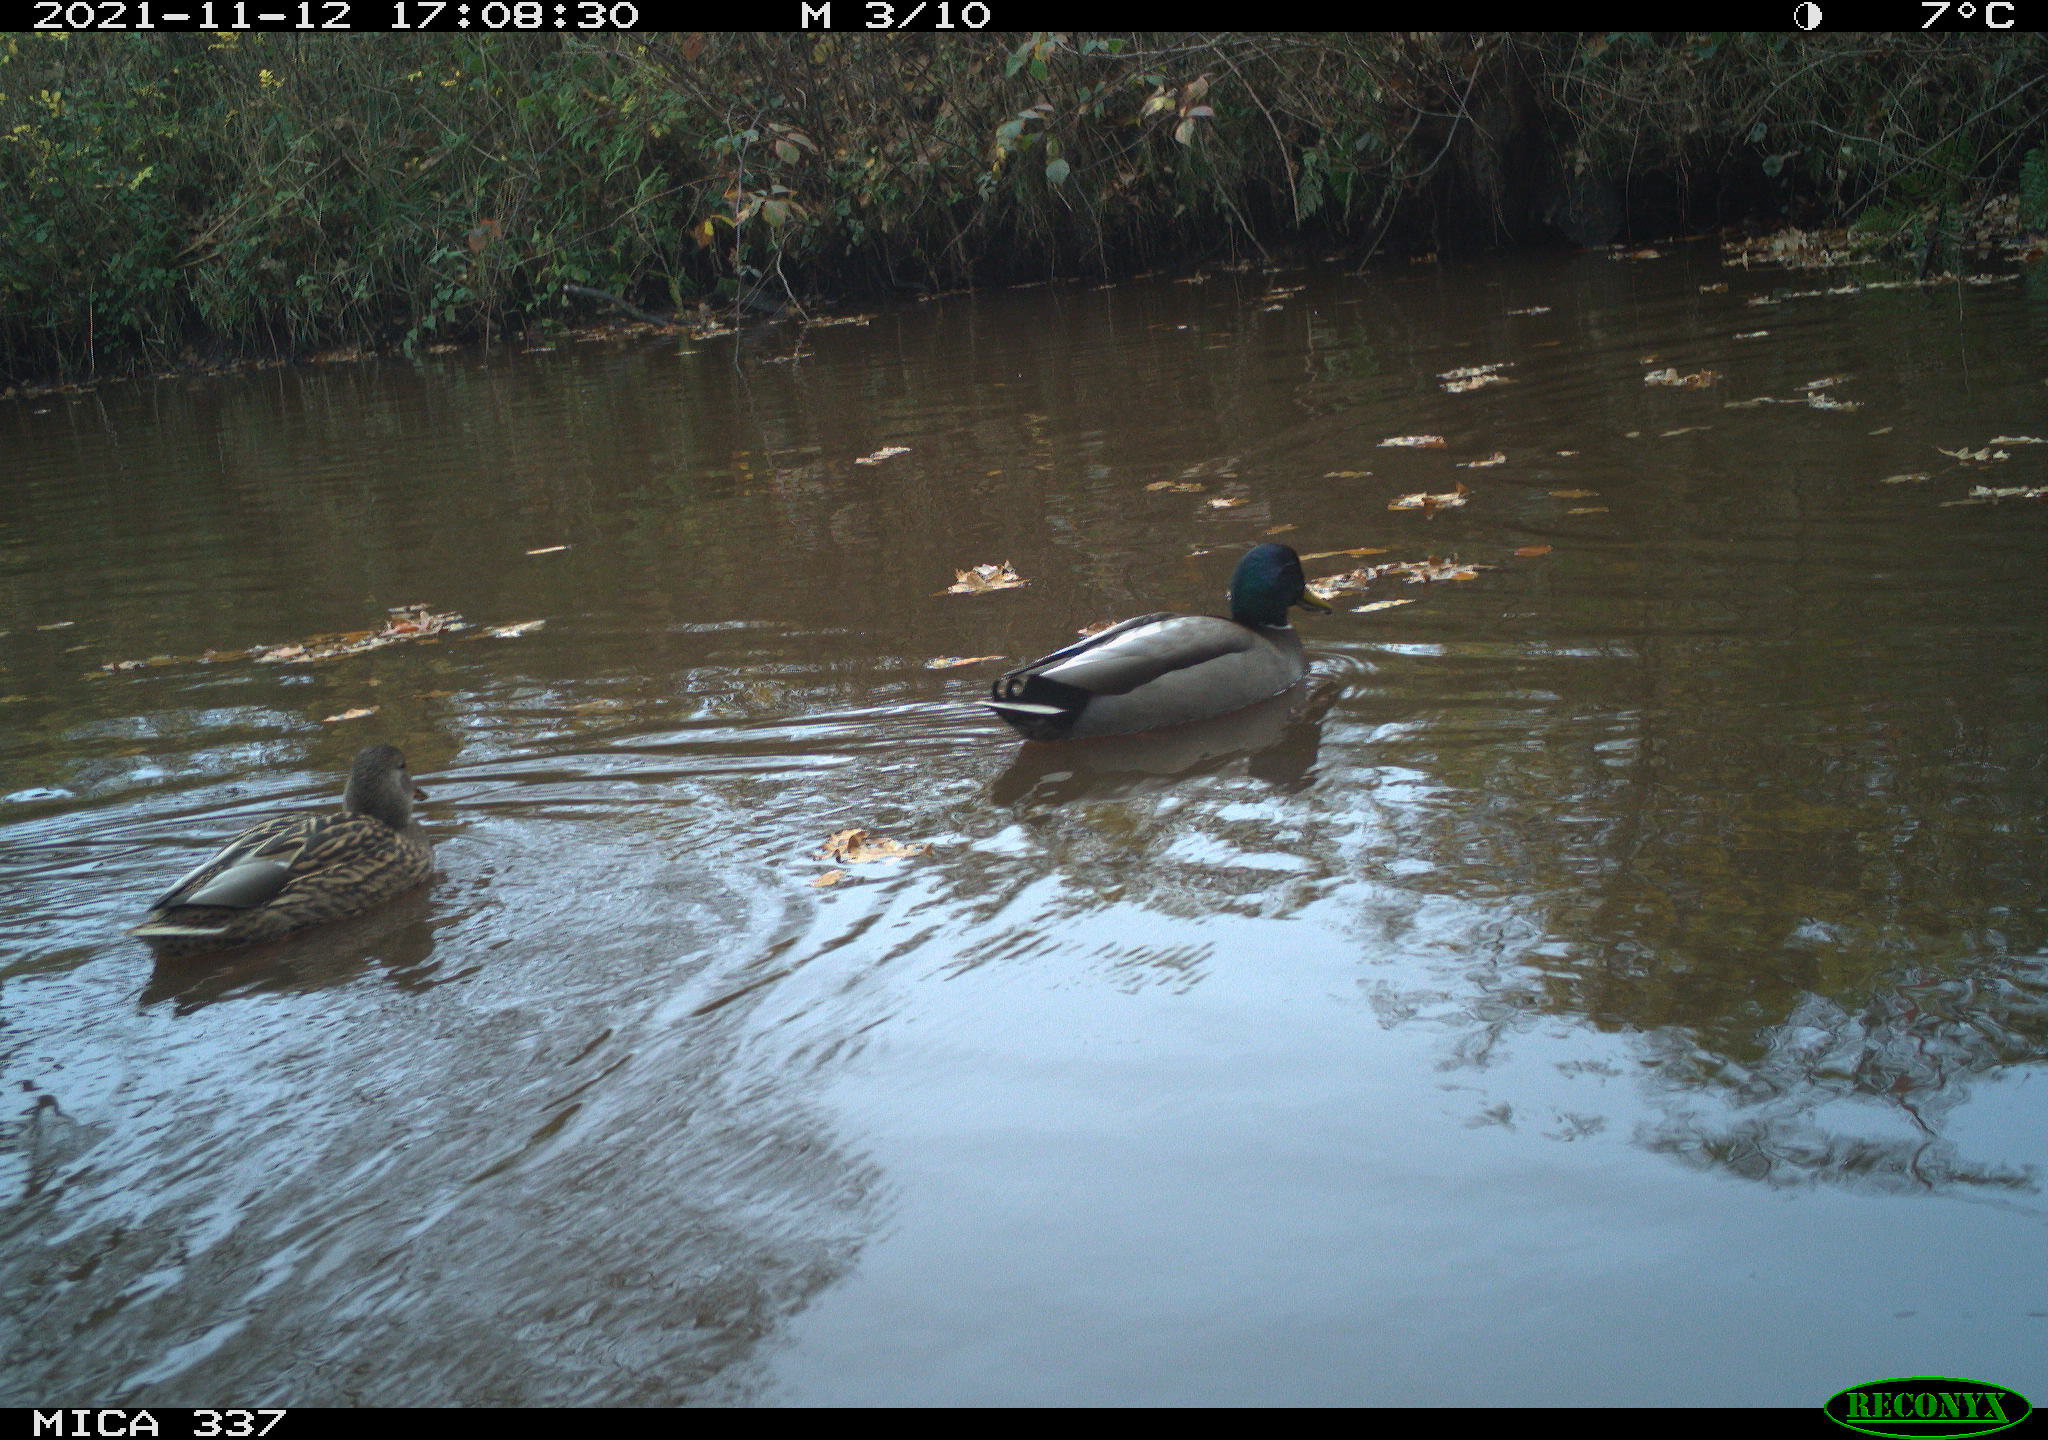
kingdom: Animalia
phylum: Chordata
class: Aves
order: Anseriformes
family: Anatidae
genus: Anas
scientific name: Anas platyrhynchos
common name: Mallard
